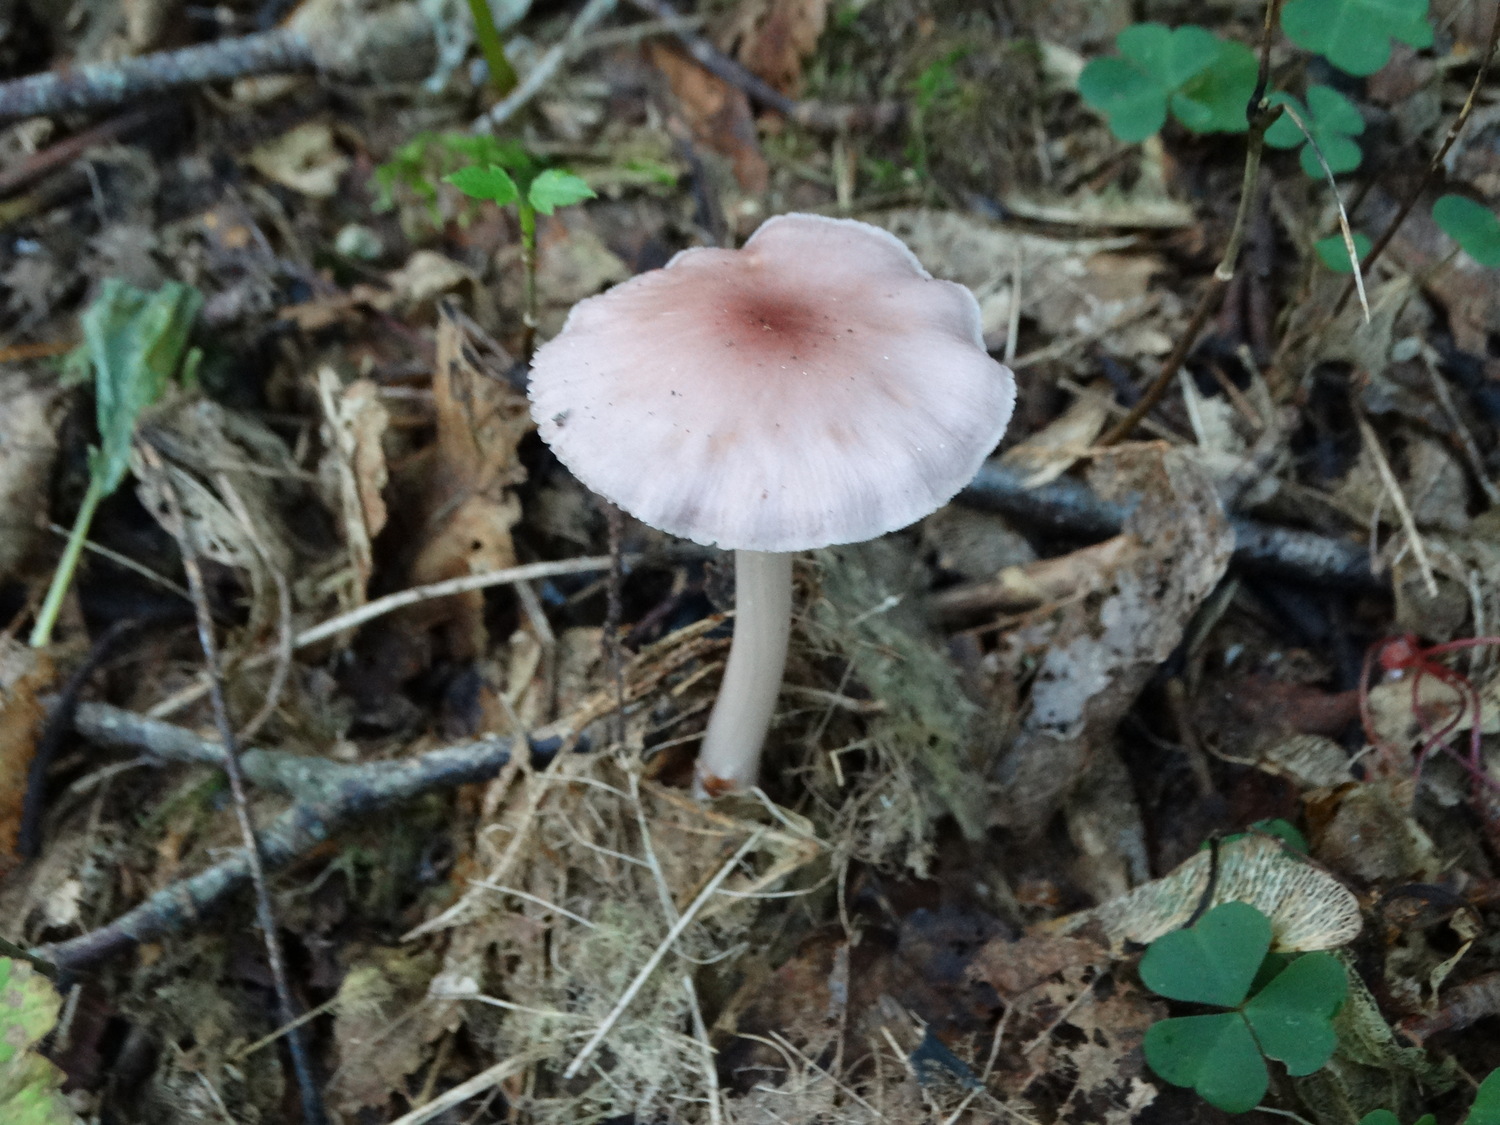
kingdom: Fungi
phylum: Basidiomycota
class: Agaricomycetes
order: Agaricales
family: Mycenaceae
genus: Mycena
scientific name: Mycena rosea
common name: rosa huesvamp
